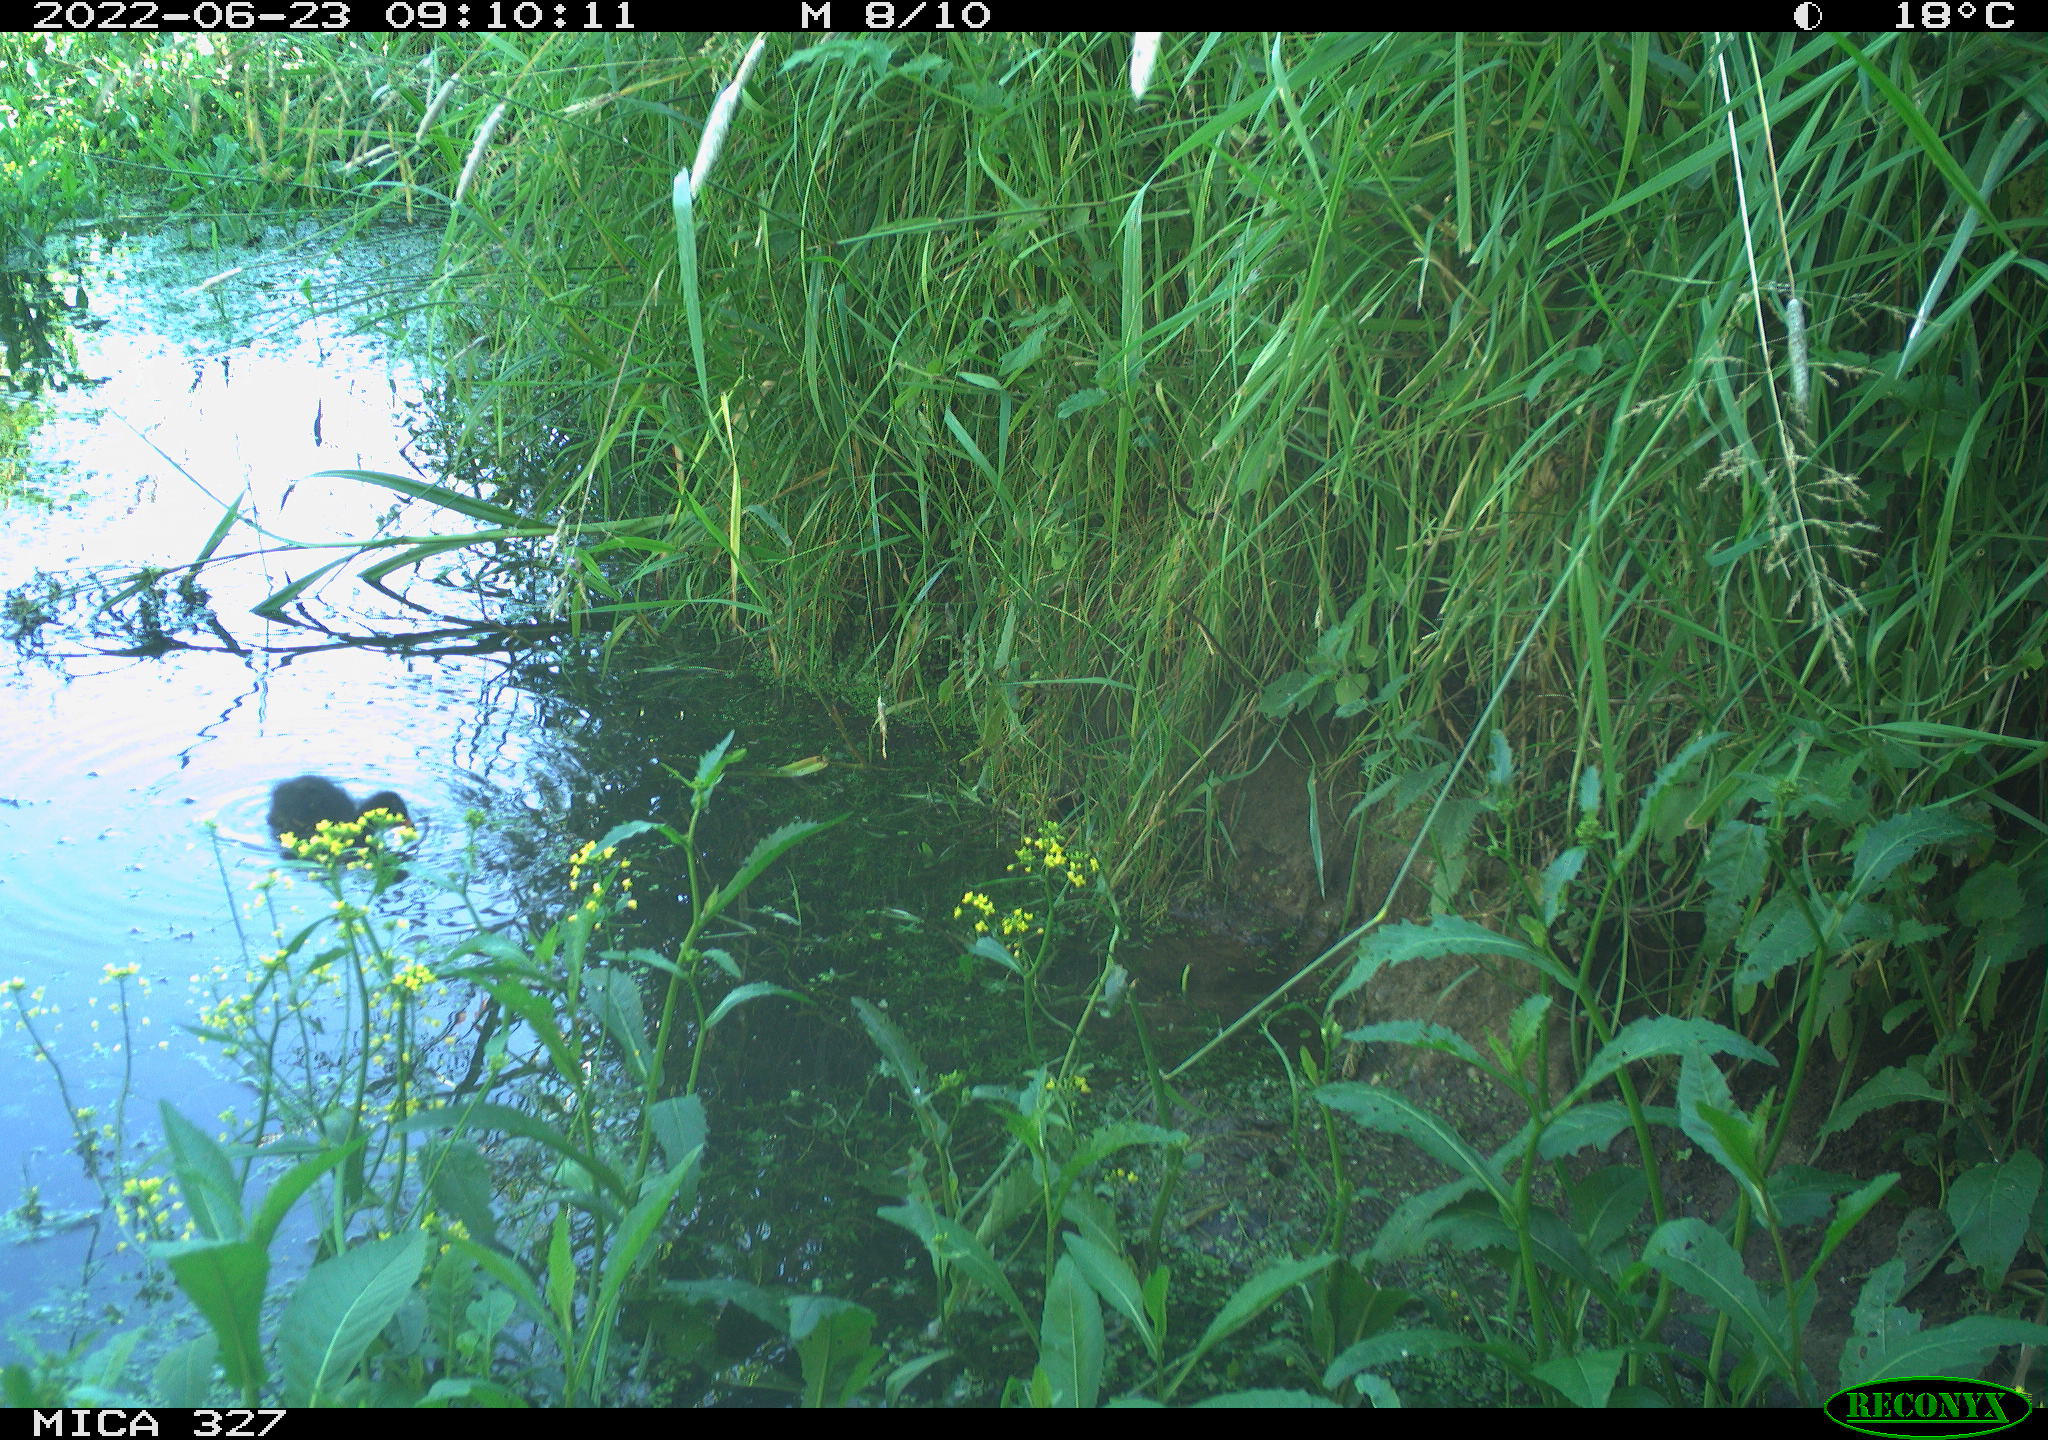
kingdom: Animalia
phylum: Chordata
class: Aves
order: Gruiformes
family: Rallidae
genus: Gallinula
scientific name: Gallinula chloropus
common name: Common moorhen
